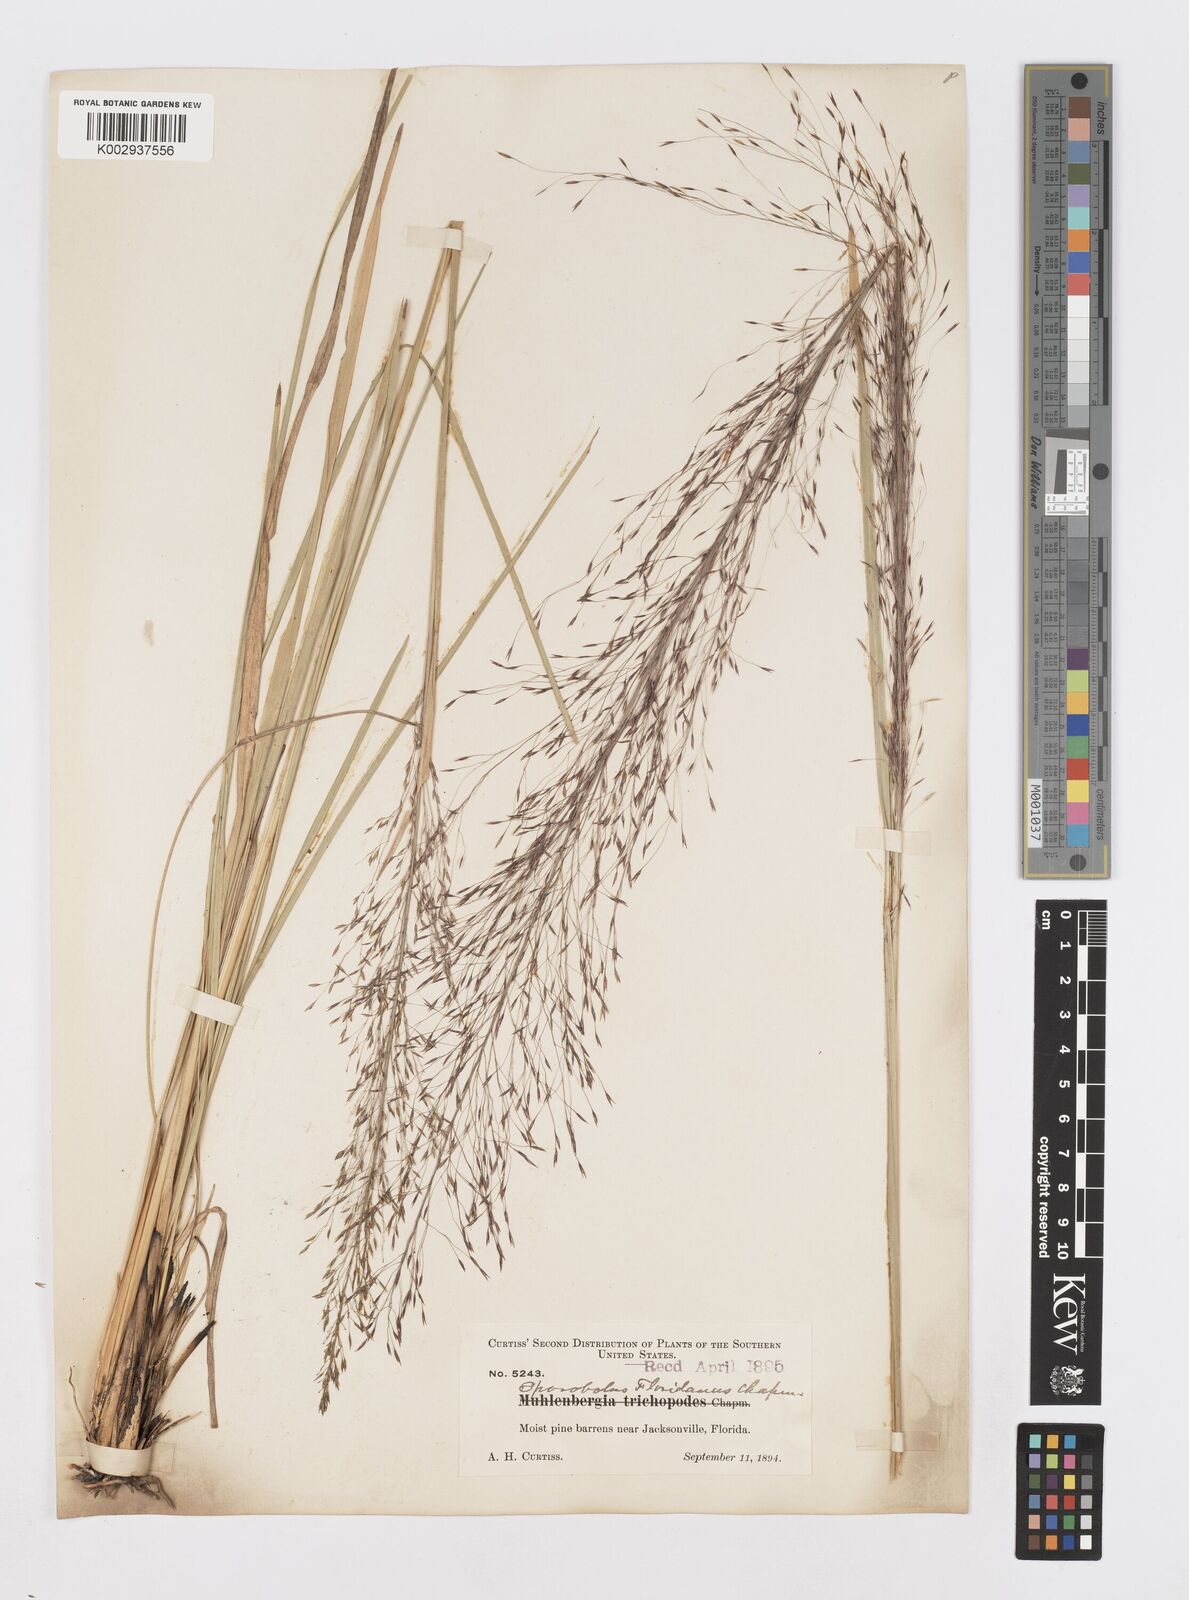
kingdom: Plantae
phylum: Tracheophyta
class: Liliopsida
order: Poales
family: Poaceae
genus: Sporobolus
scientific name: Sporobolus floridanus
